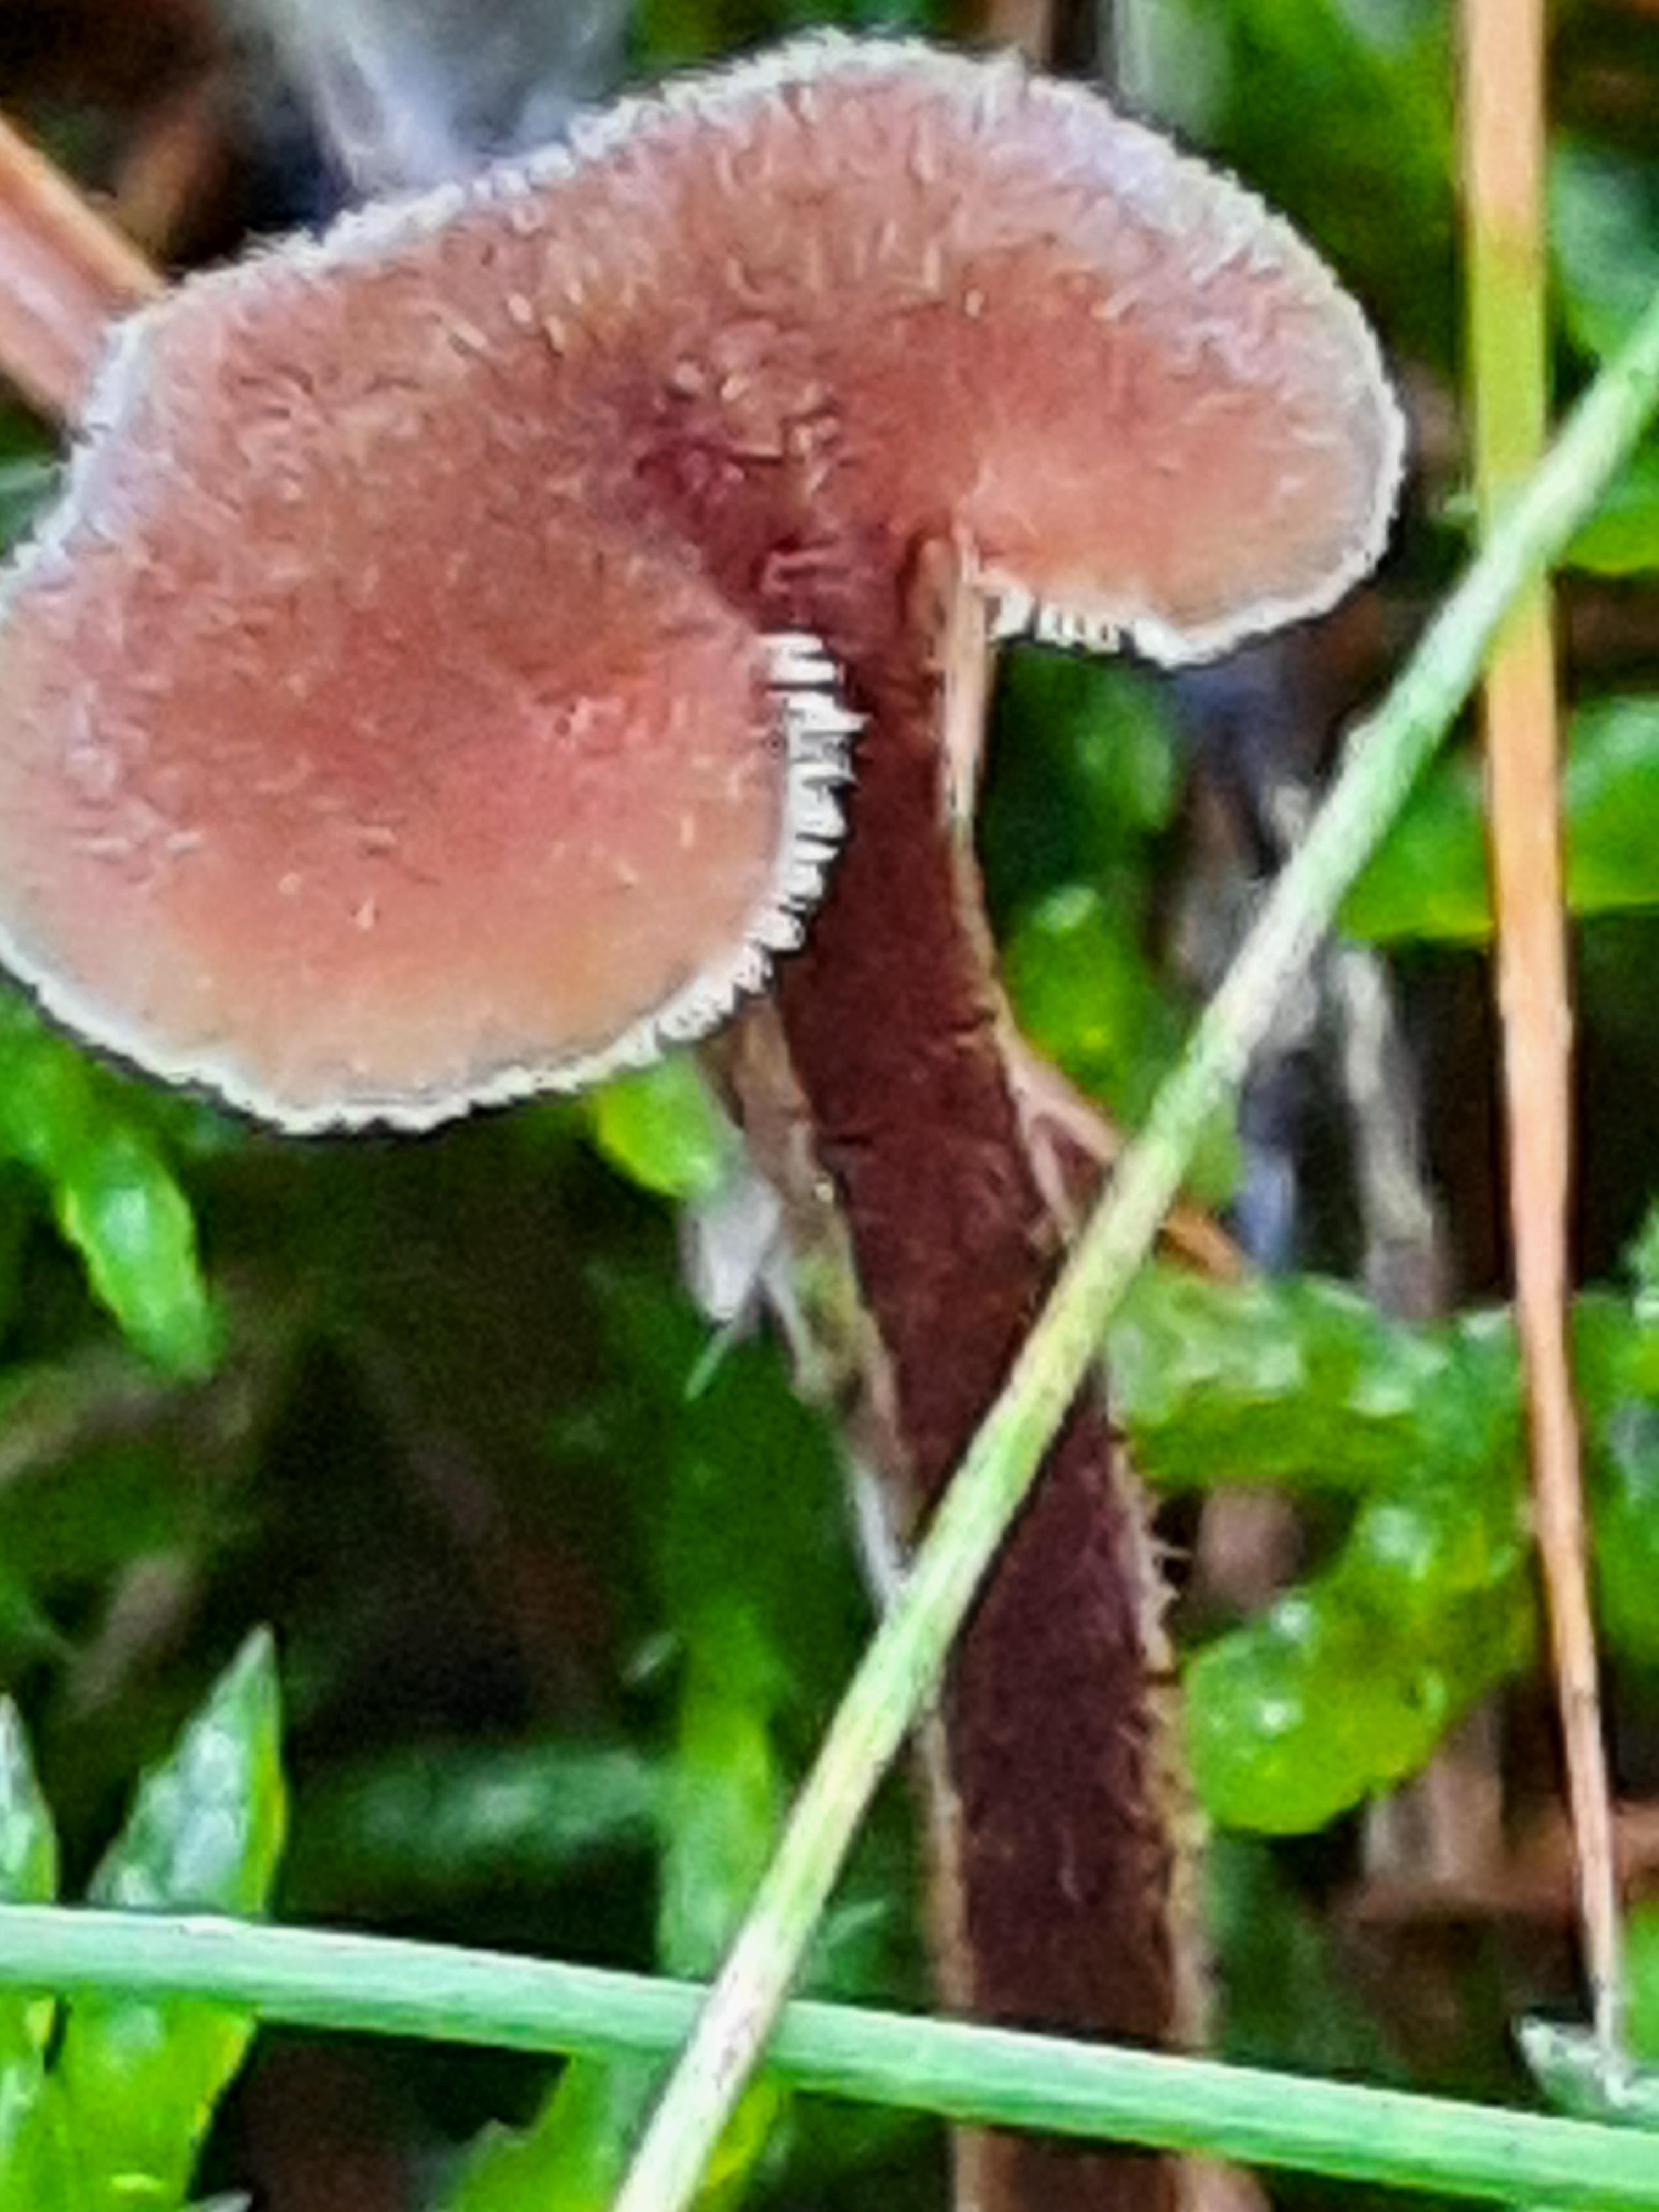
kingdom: Fungi
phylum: Basidiomycota
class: Agaricomycetes
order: Russulales
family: Auriscalpiaceae
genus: Auriscalpium
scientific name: Auriscalpium vulgare
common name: koglepigsvamp
